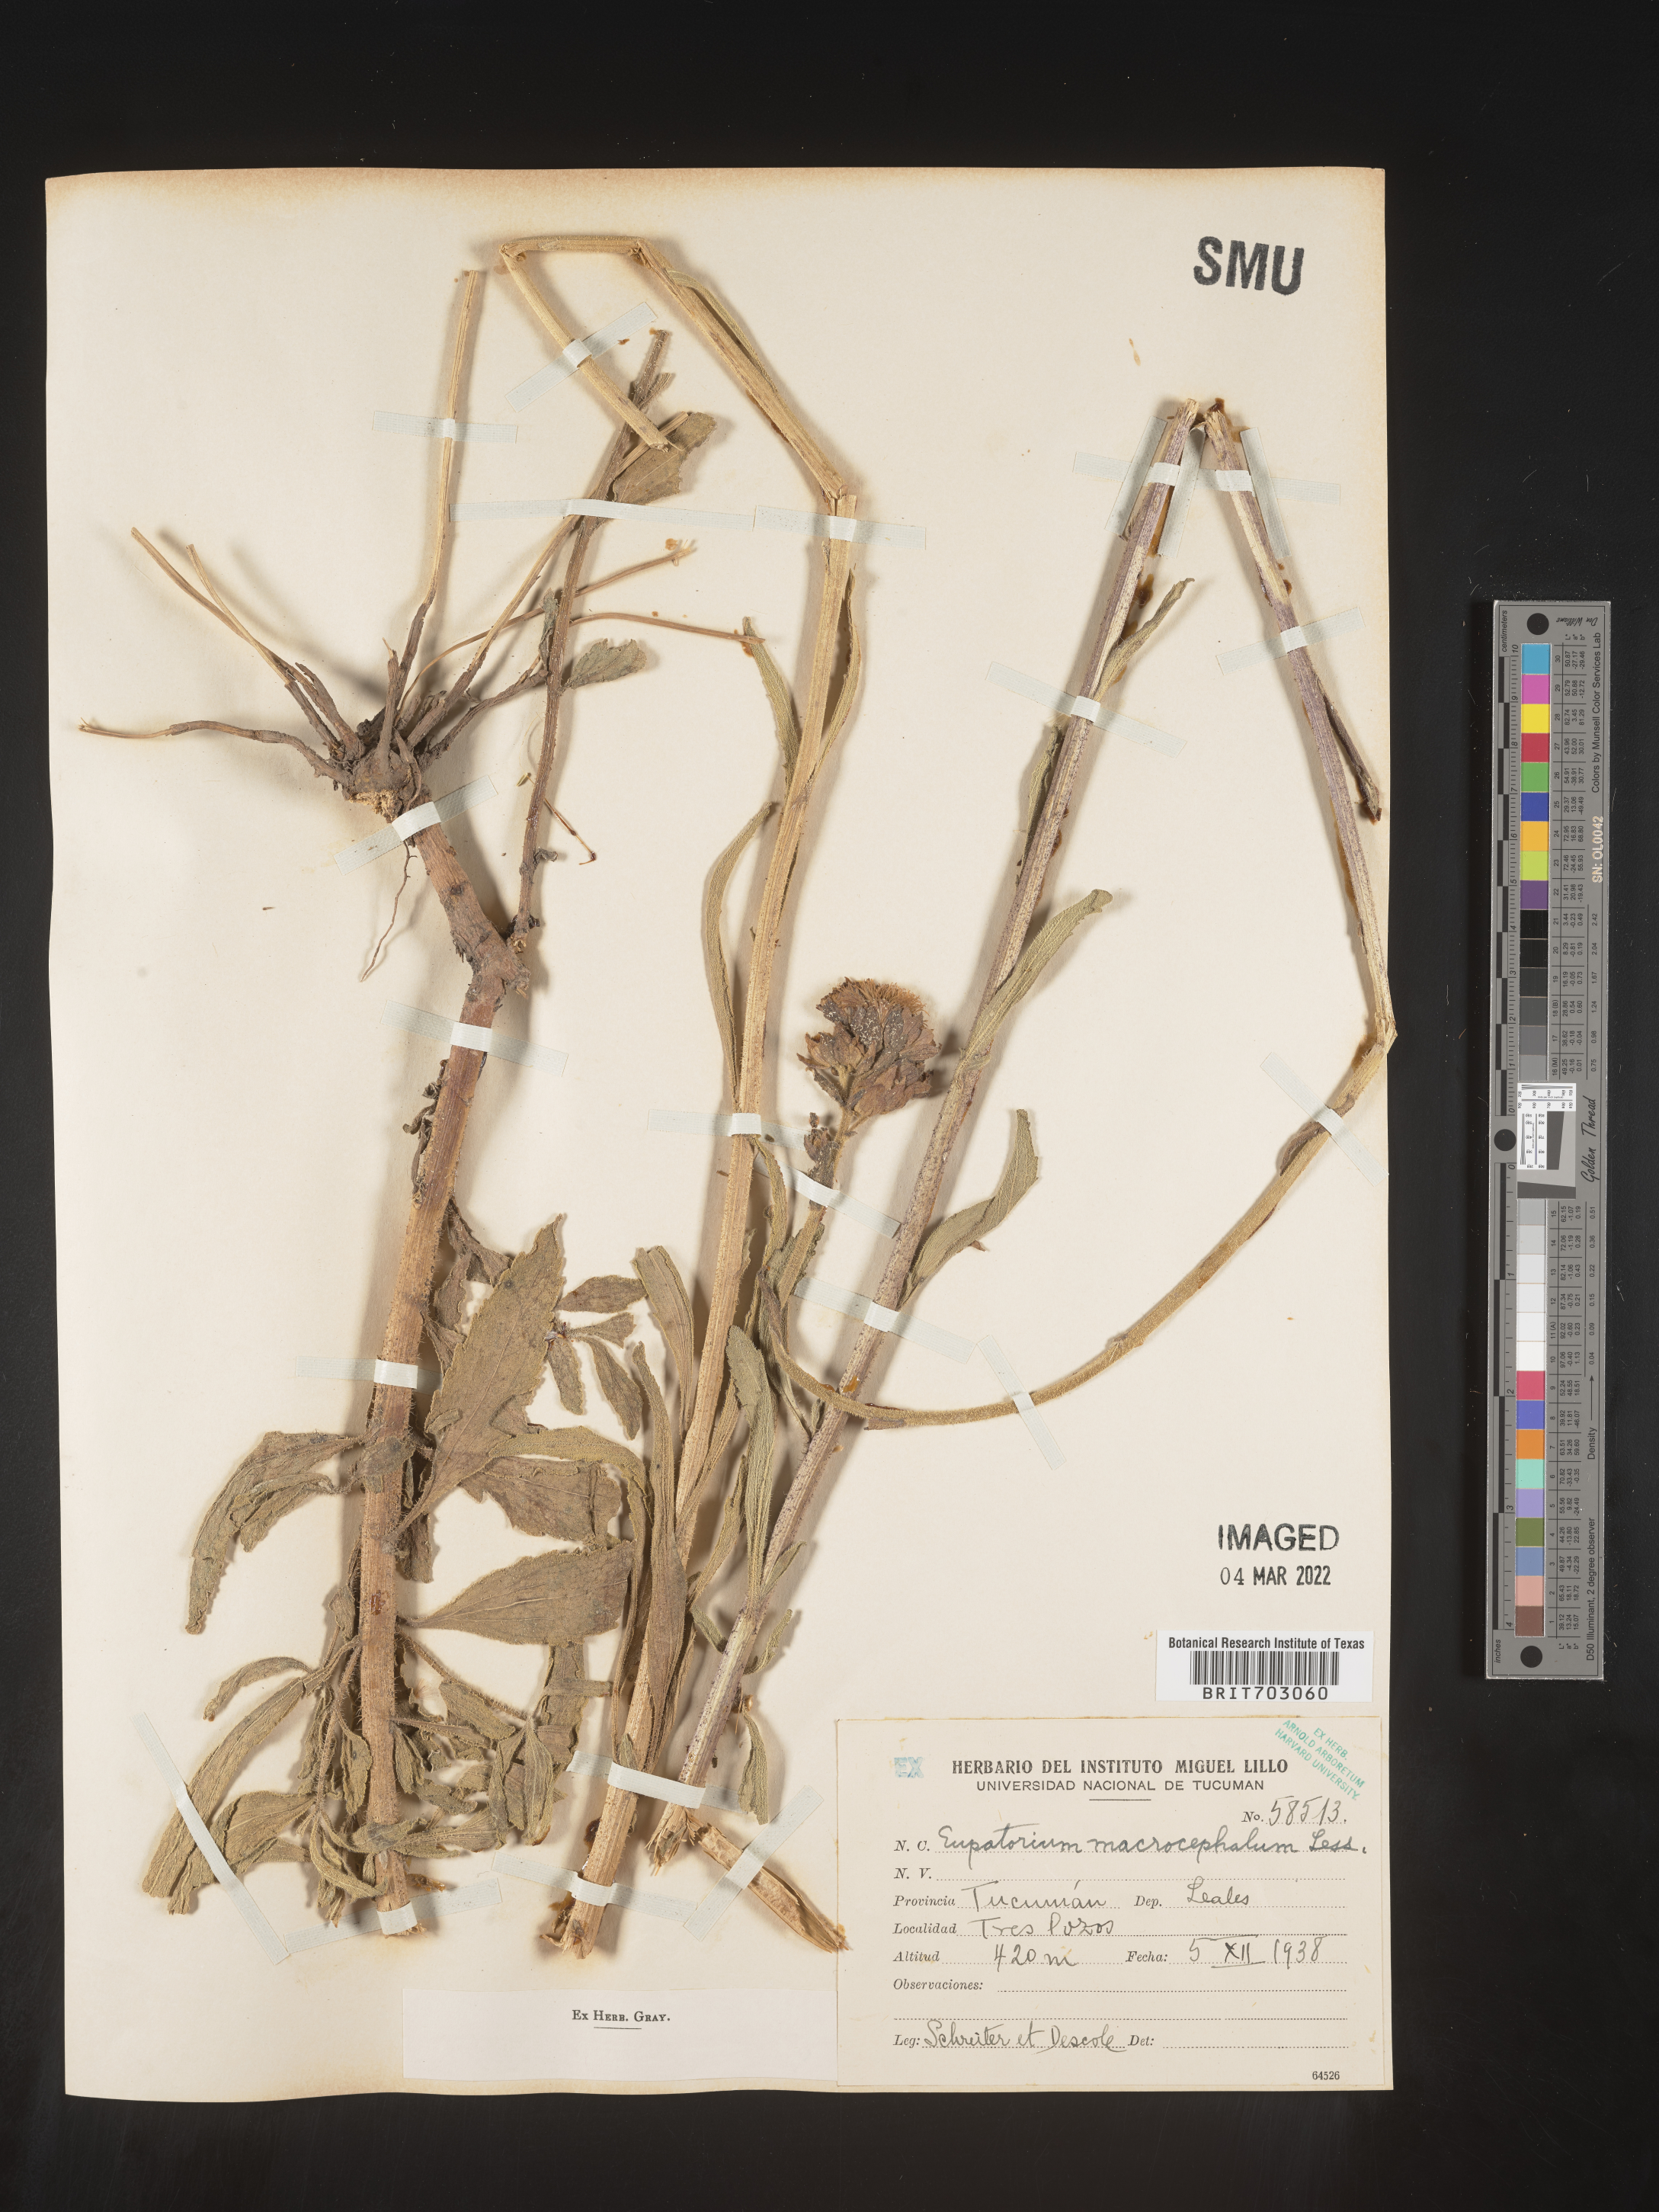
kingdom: Plantae
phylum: Tracheophyta
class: Magnoliopsida
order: Asterales
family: Asteraceae
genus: Eupatorium
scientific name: Eupatorium
